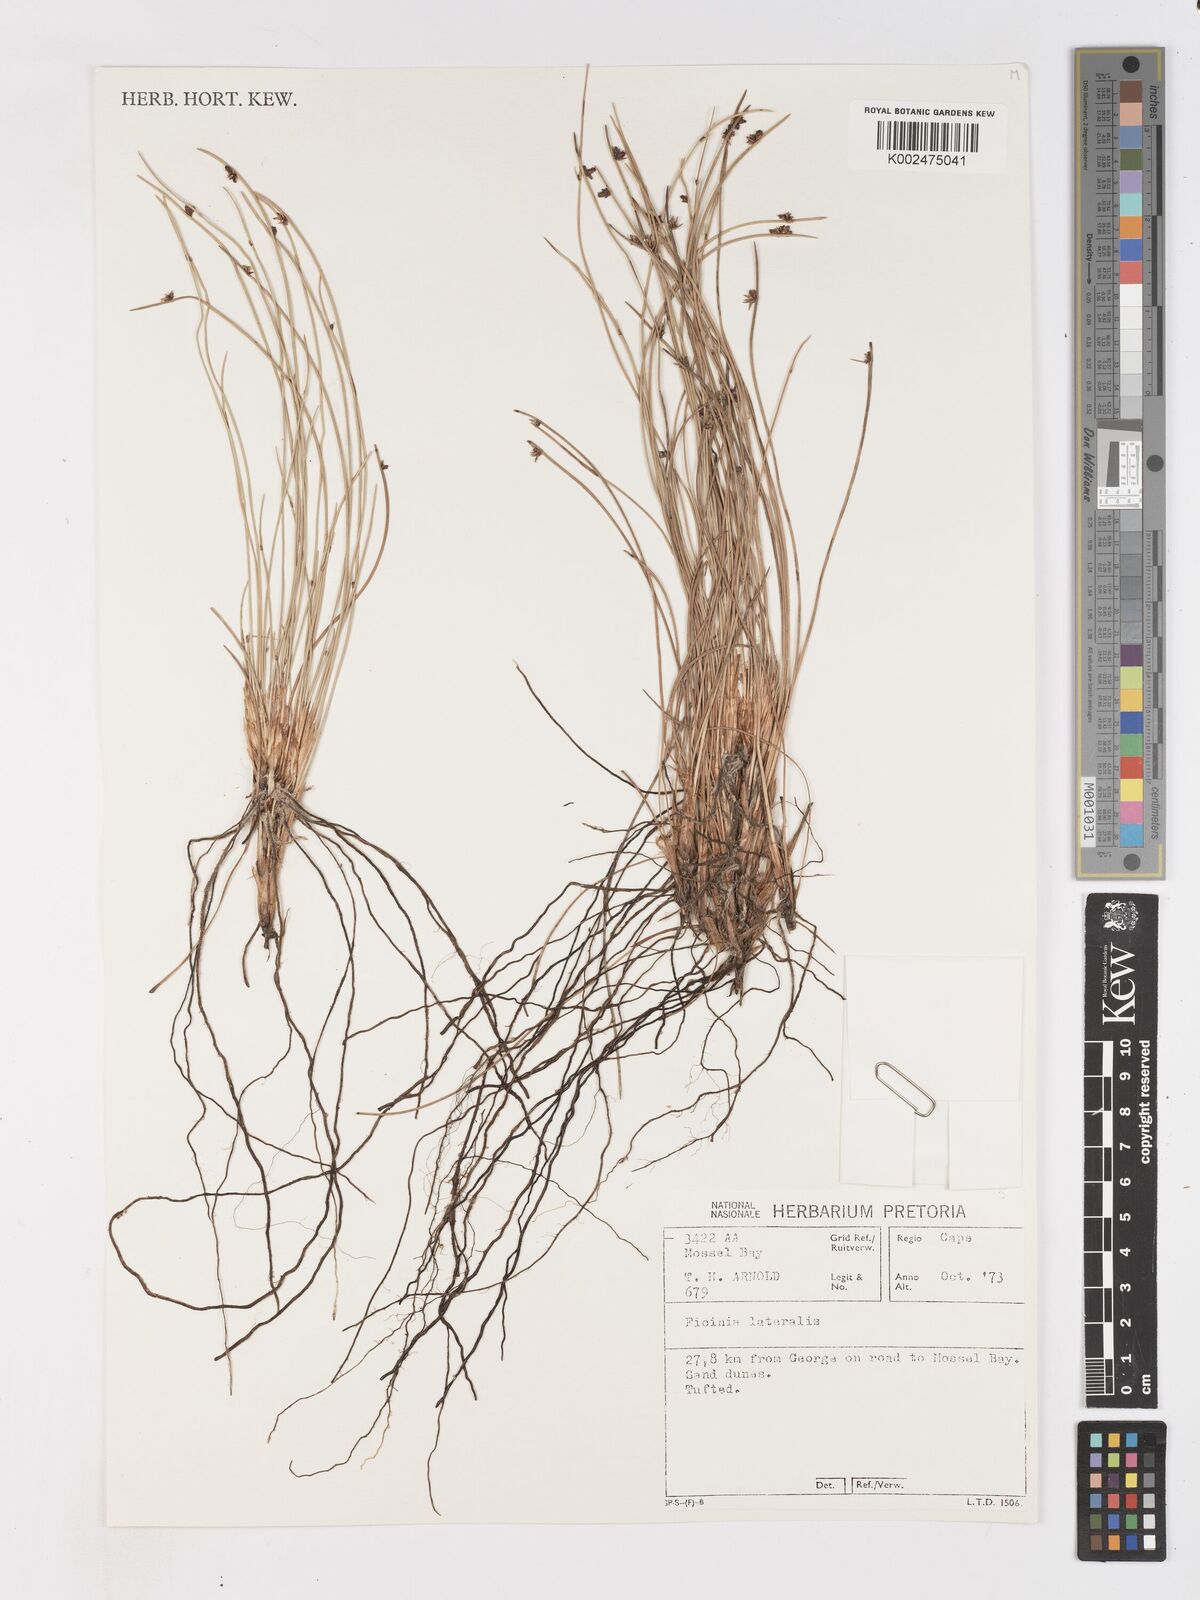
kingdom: Plantae
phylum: Tracheophyta
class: Liliopsida
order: Poales
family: Cyperaceae
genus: Ficinia
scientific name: Ficinia lateralis
